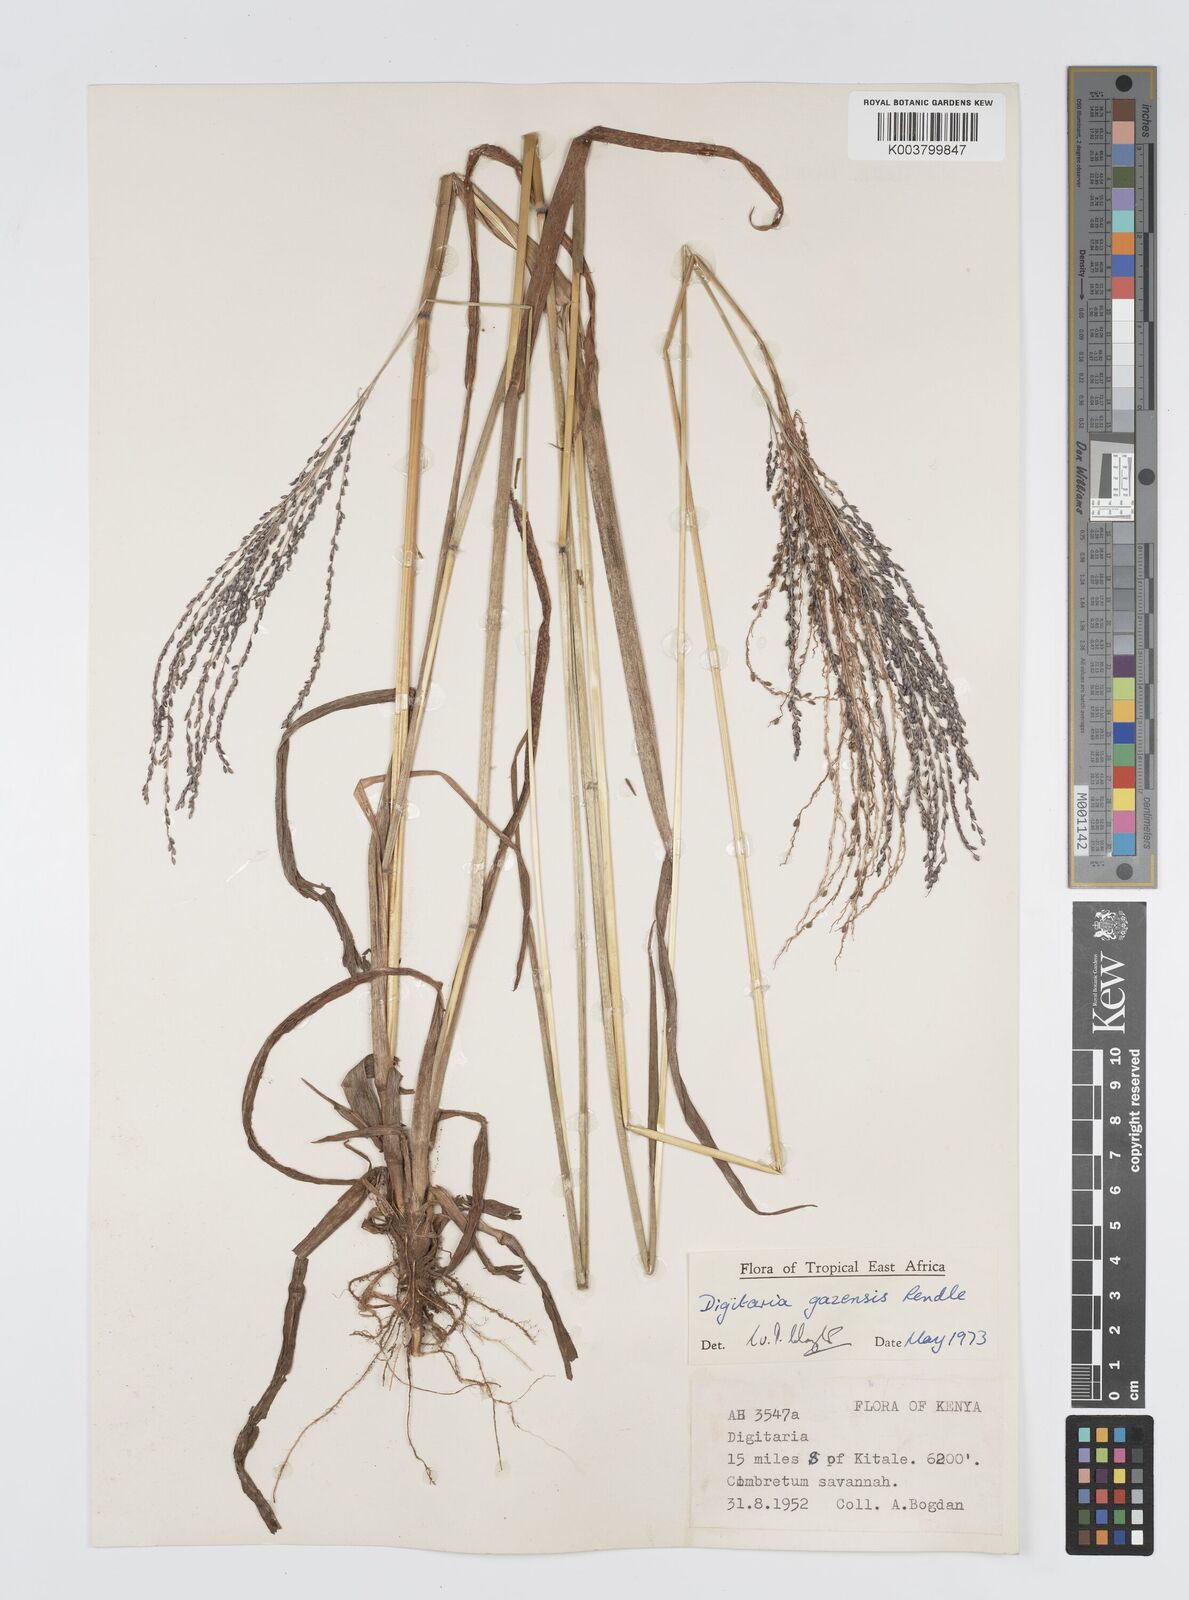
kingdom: Plantae
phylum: Tracheophyta
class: Liliopsida
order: Poales
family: Poaceae
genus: Digitaria
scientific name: Digitaria gazensis
